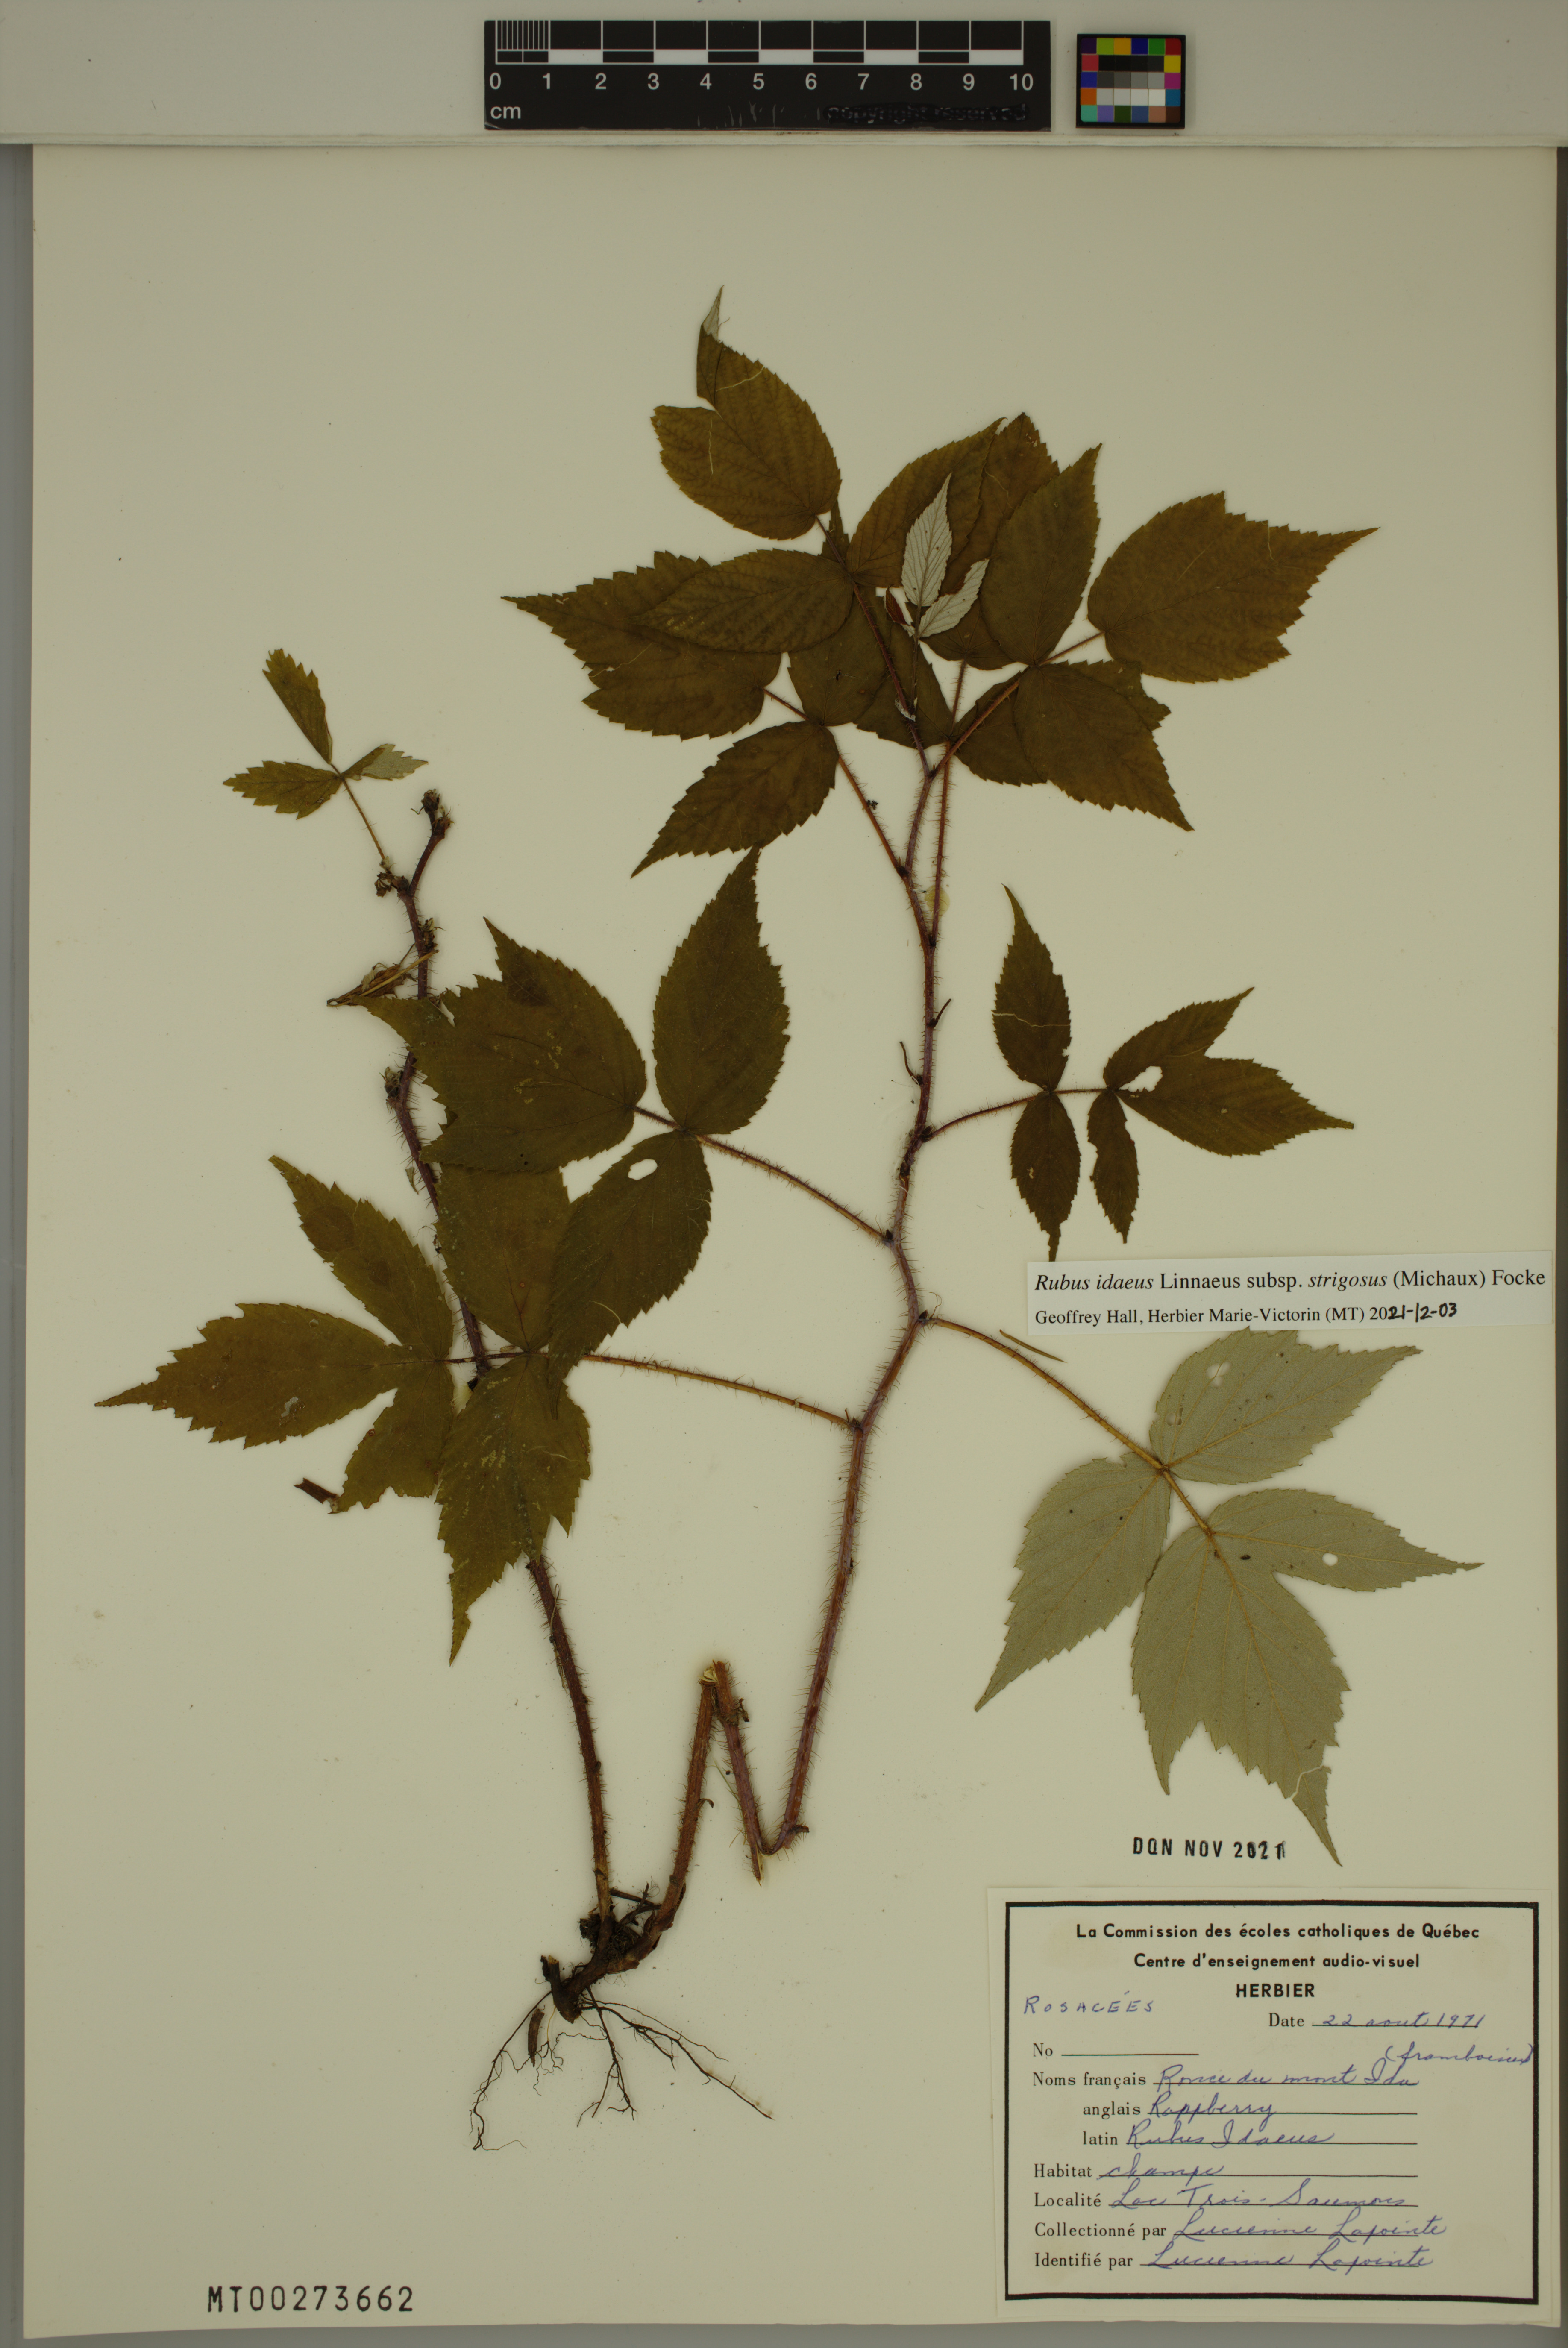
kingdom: Plantae
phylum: Tracheophyta
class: Magnoliopsida
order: Rosales
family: Rosaceae
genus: Rubus
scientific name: Rubus sachalinensis
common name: Red raspberry
